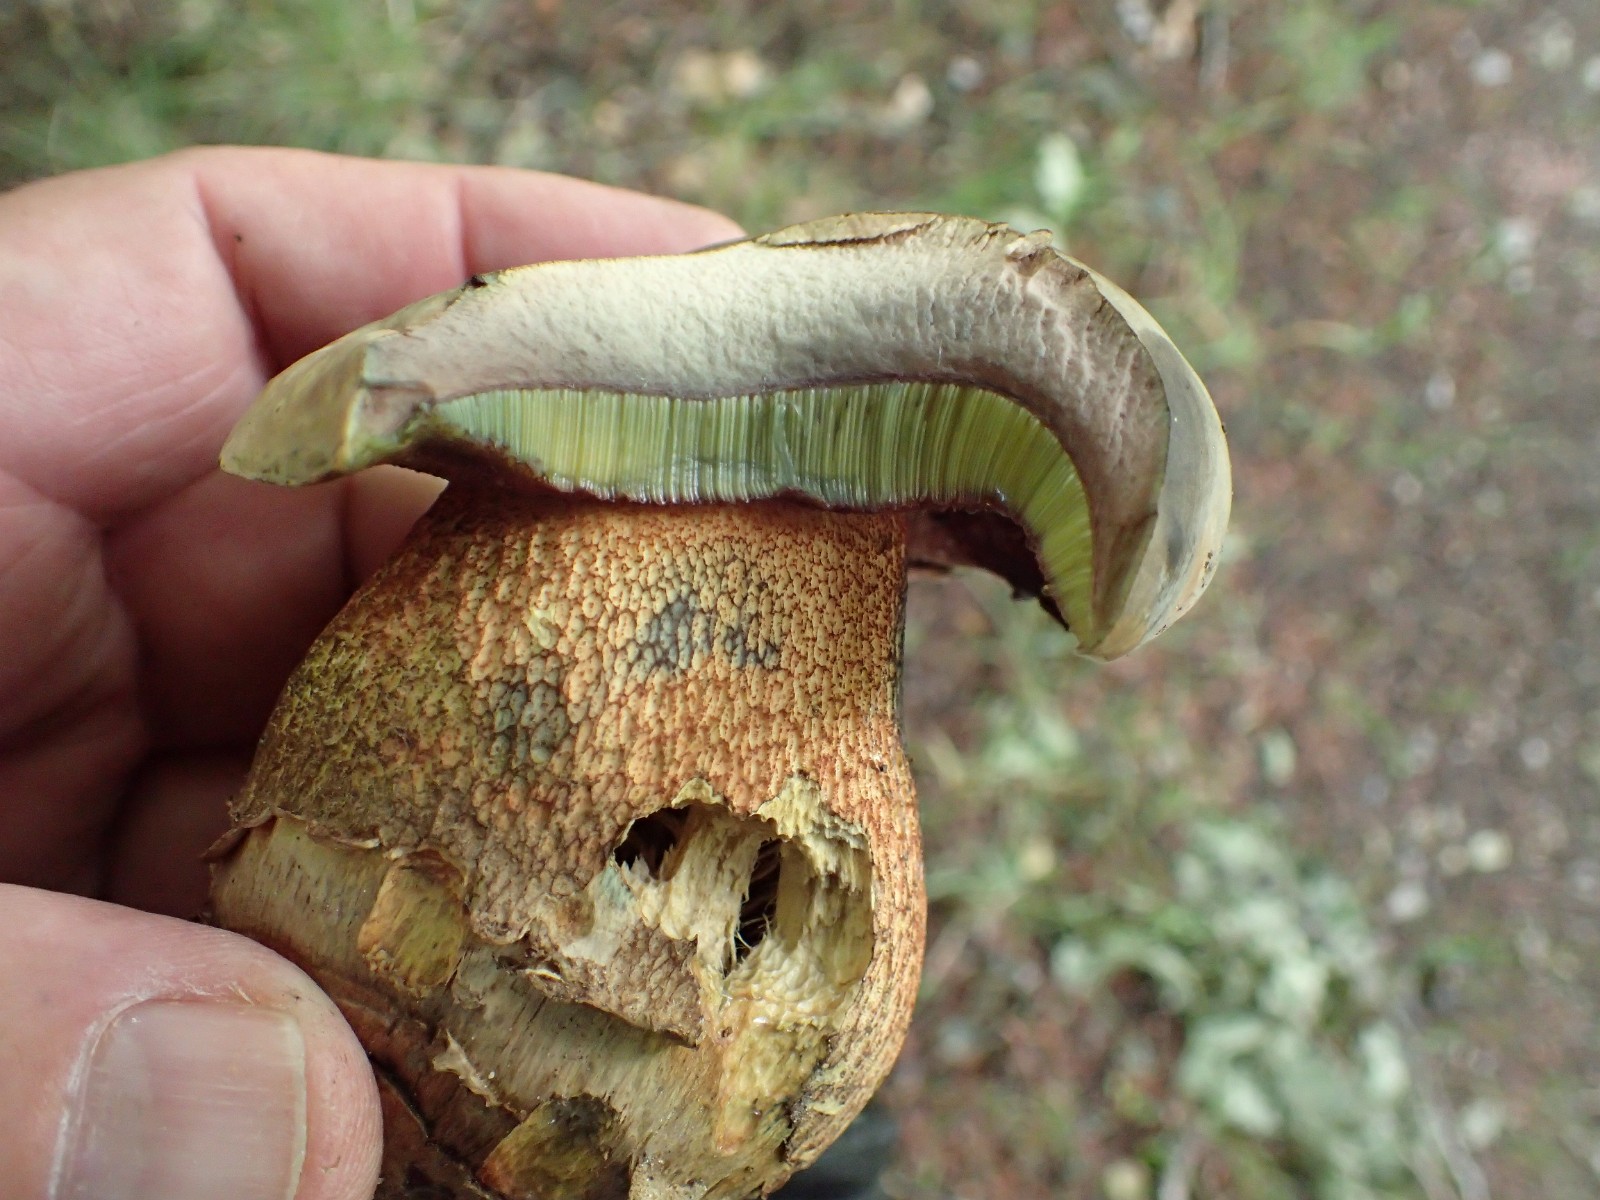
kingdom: Fungi
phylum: Basidiomycota
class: Agaricomycetes
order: Boletales
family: Boletaceae
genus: Caloboletus
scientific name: Caloboletus calopus
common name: skønfodet rørhat
